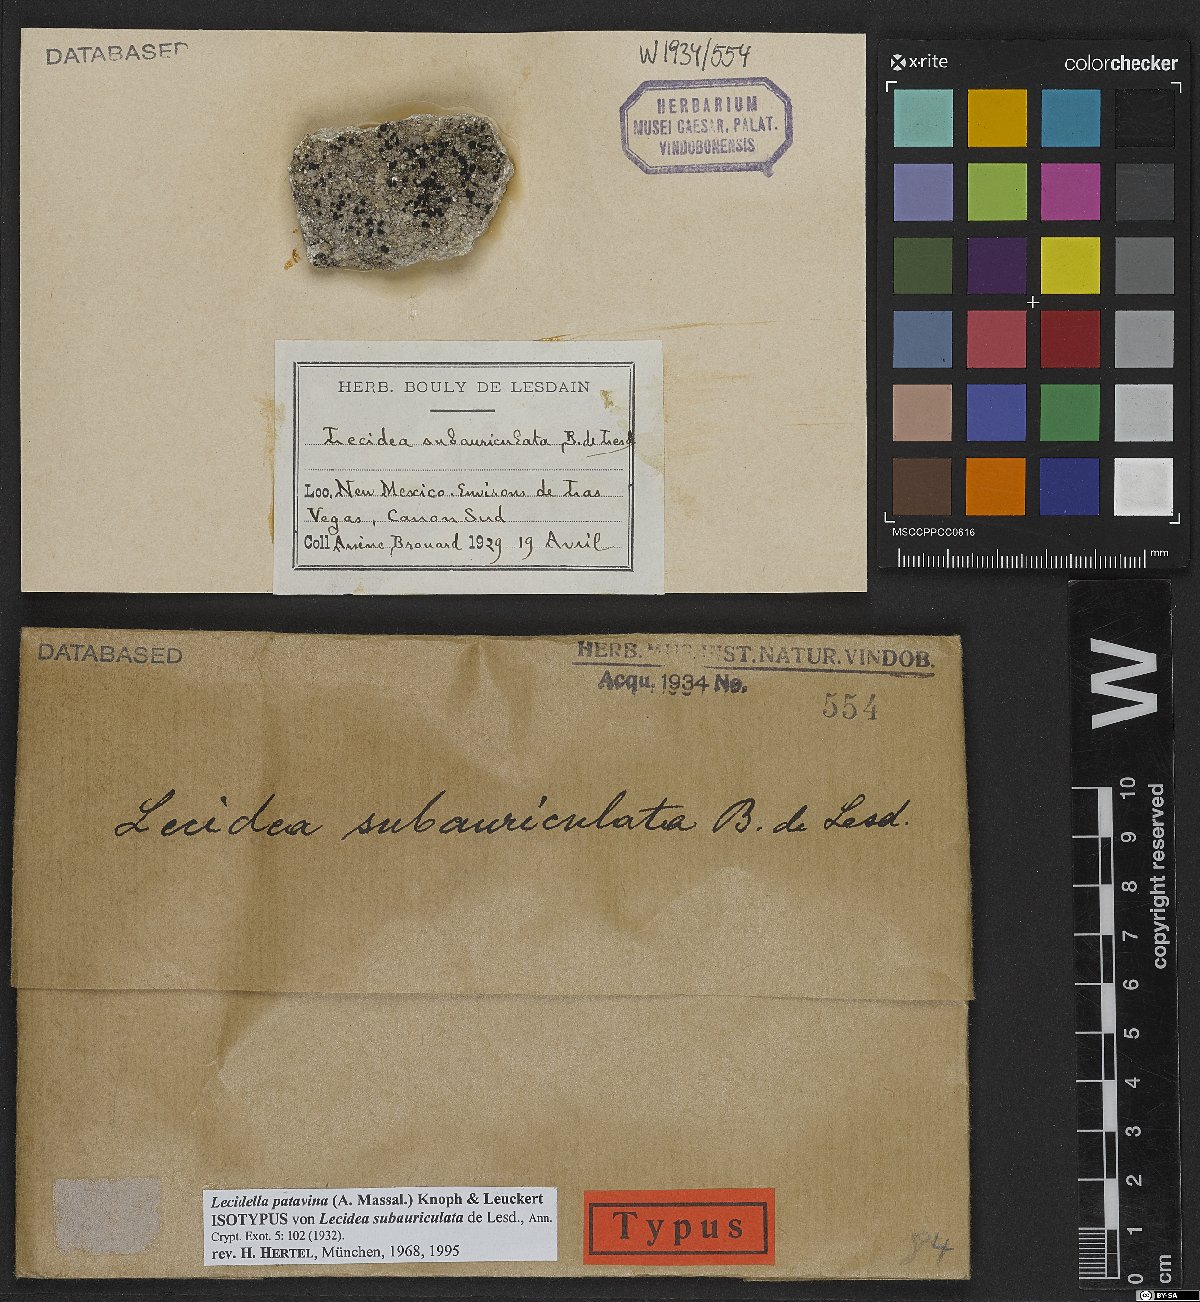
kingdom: Fungi
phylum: Ascomycota
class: Lecanoromycetes
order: Lecideales
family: Lecideaceae
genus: Lecidea
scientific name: Lecidea auriculata
